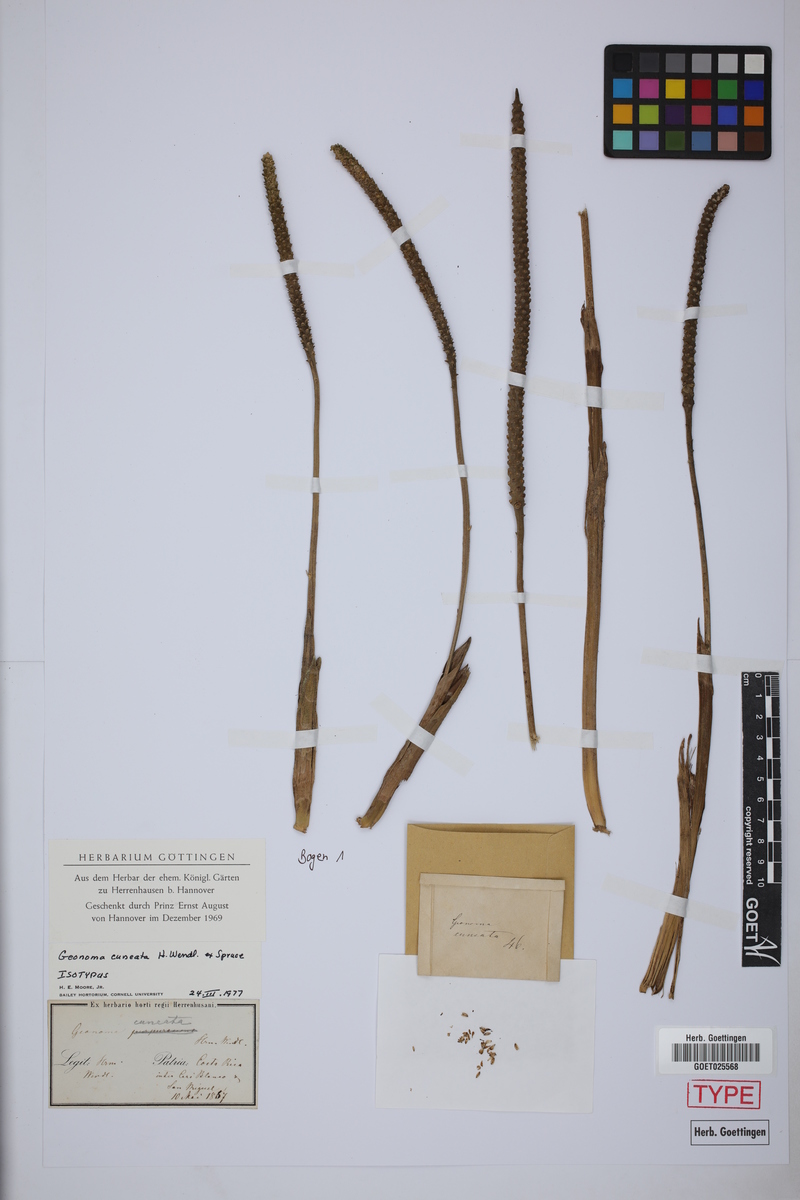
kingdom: Plantae
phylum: Tracheophyta
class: Liliopsida
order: Arecales
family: Arecaceae
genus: Geonoma
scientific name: Geonoma cuneata
